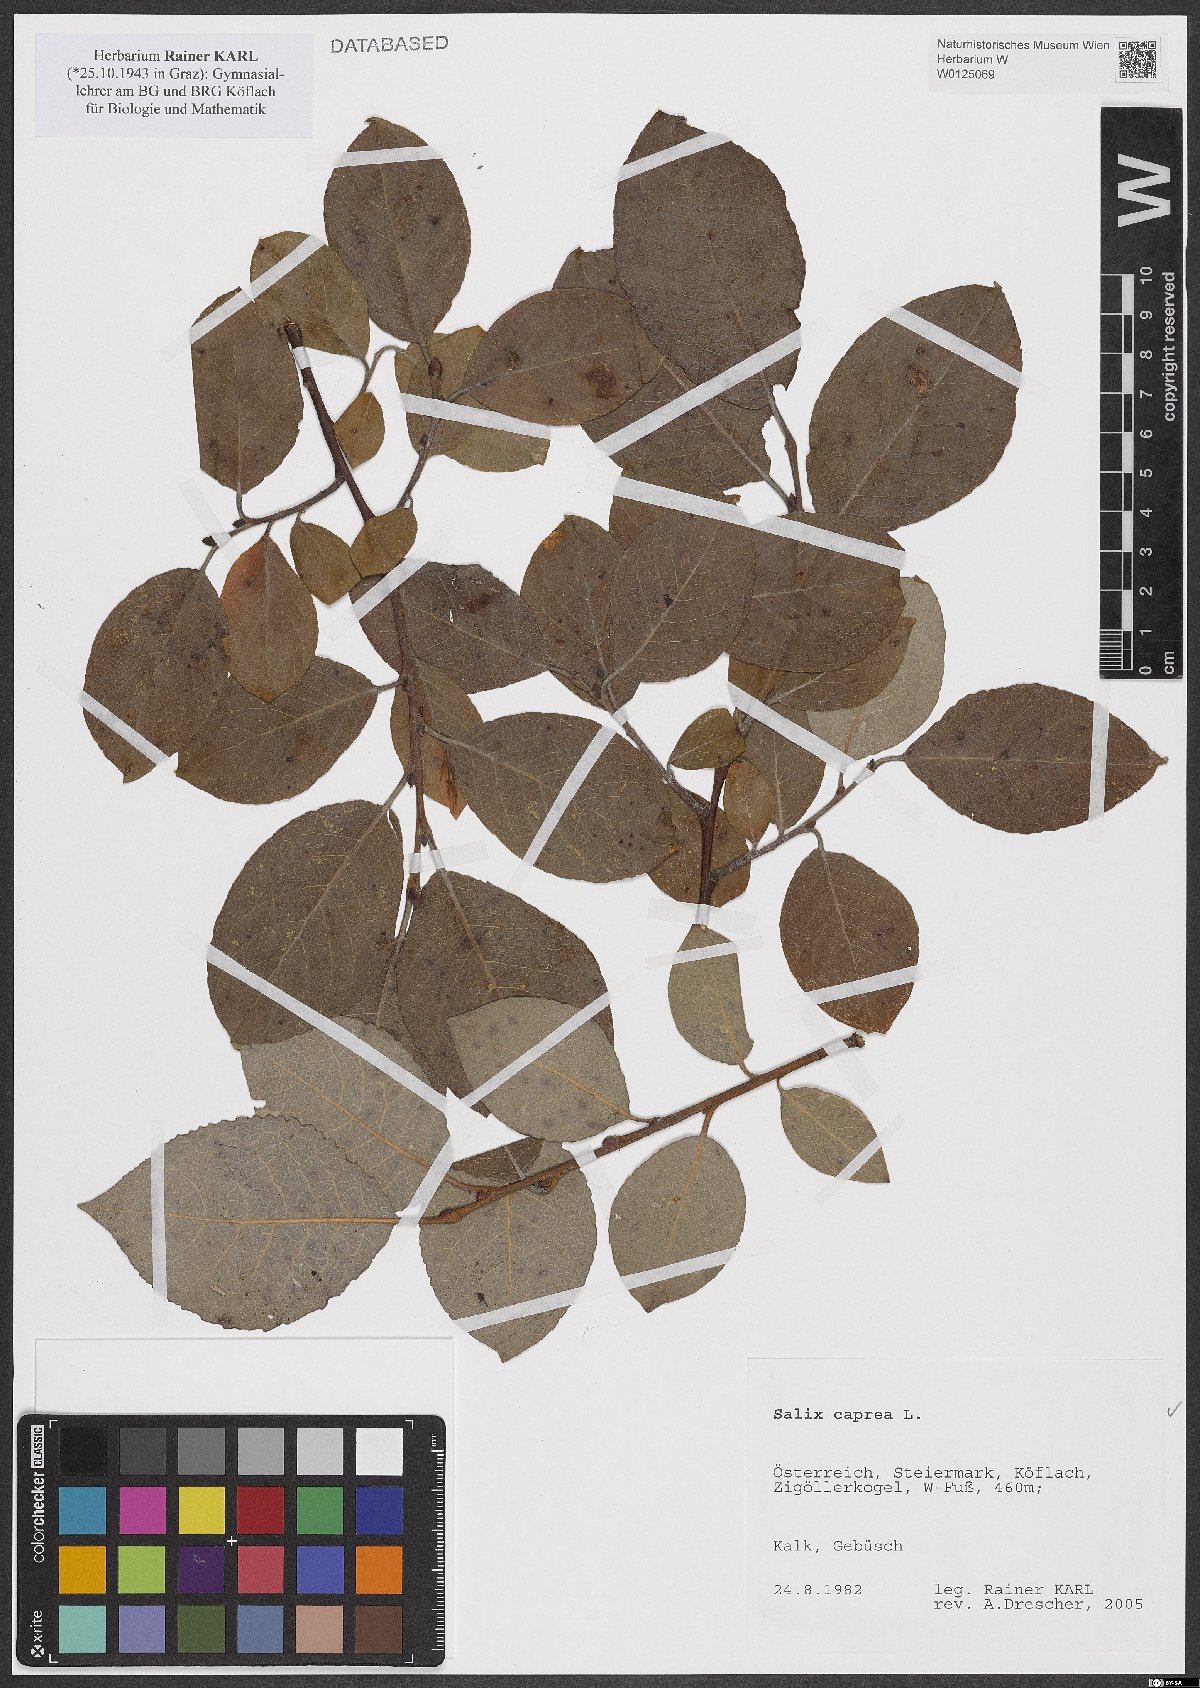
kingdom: Plantae
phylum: Tracheophyta
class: Magnoliopsida
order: Malpighiales
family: Salicaceae
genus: Salix
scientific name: Salix caprea
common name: Goat willow
